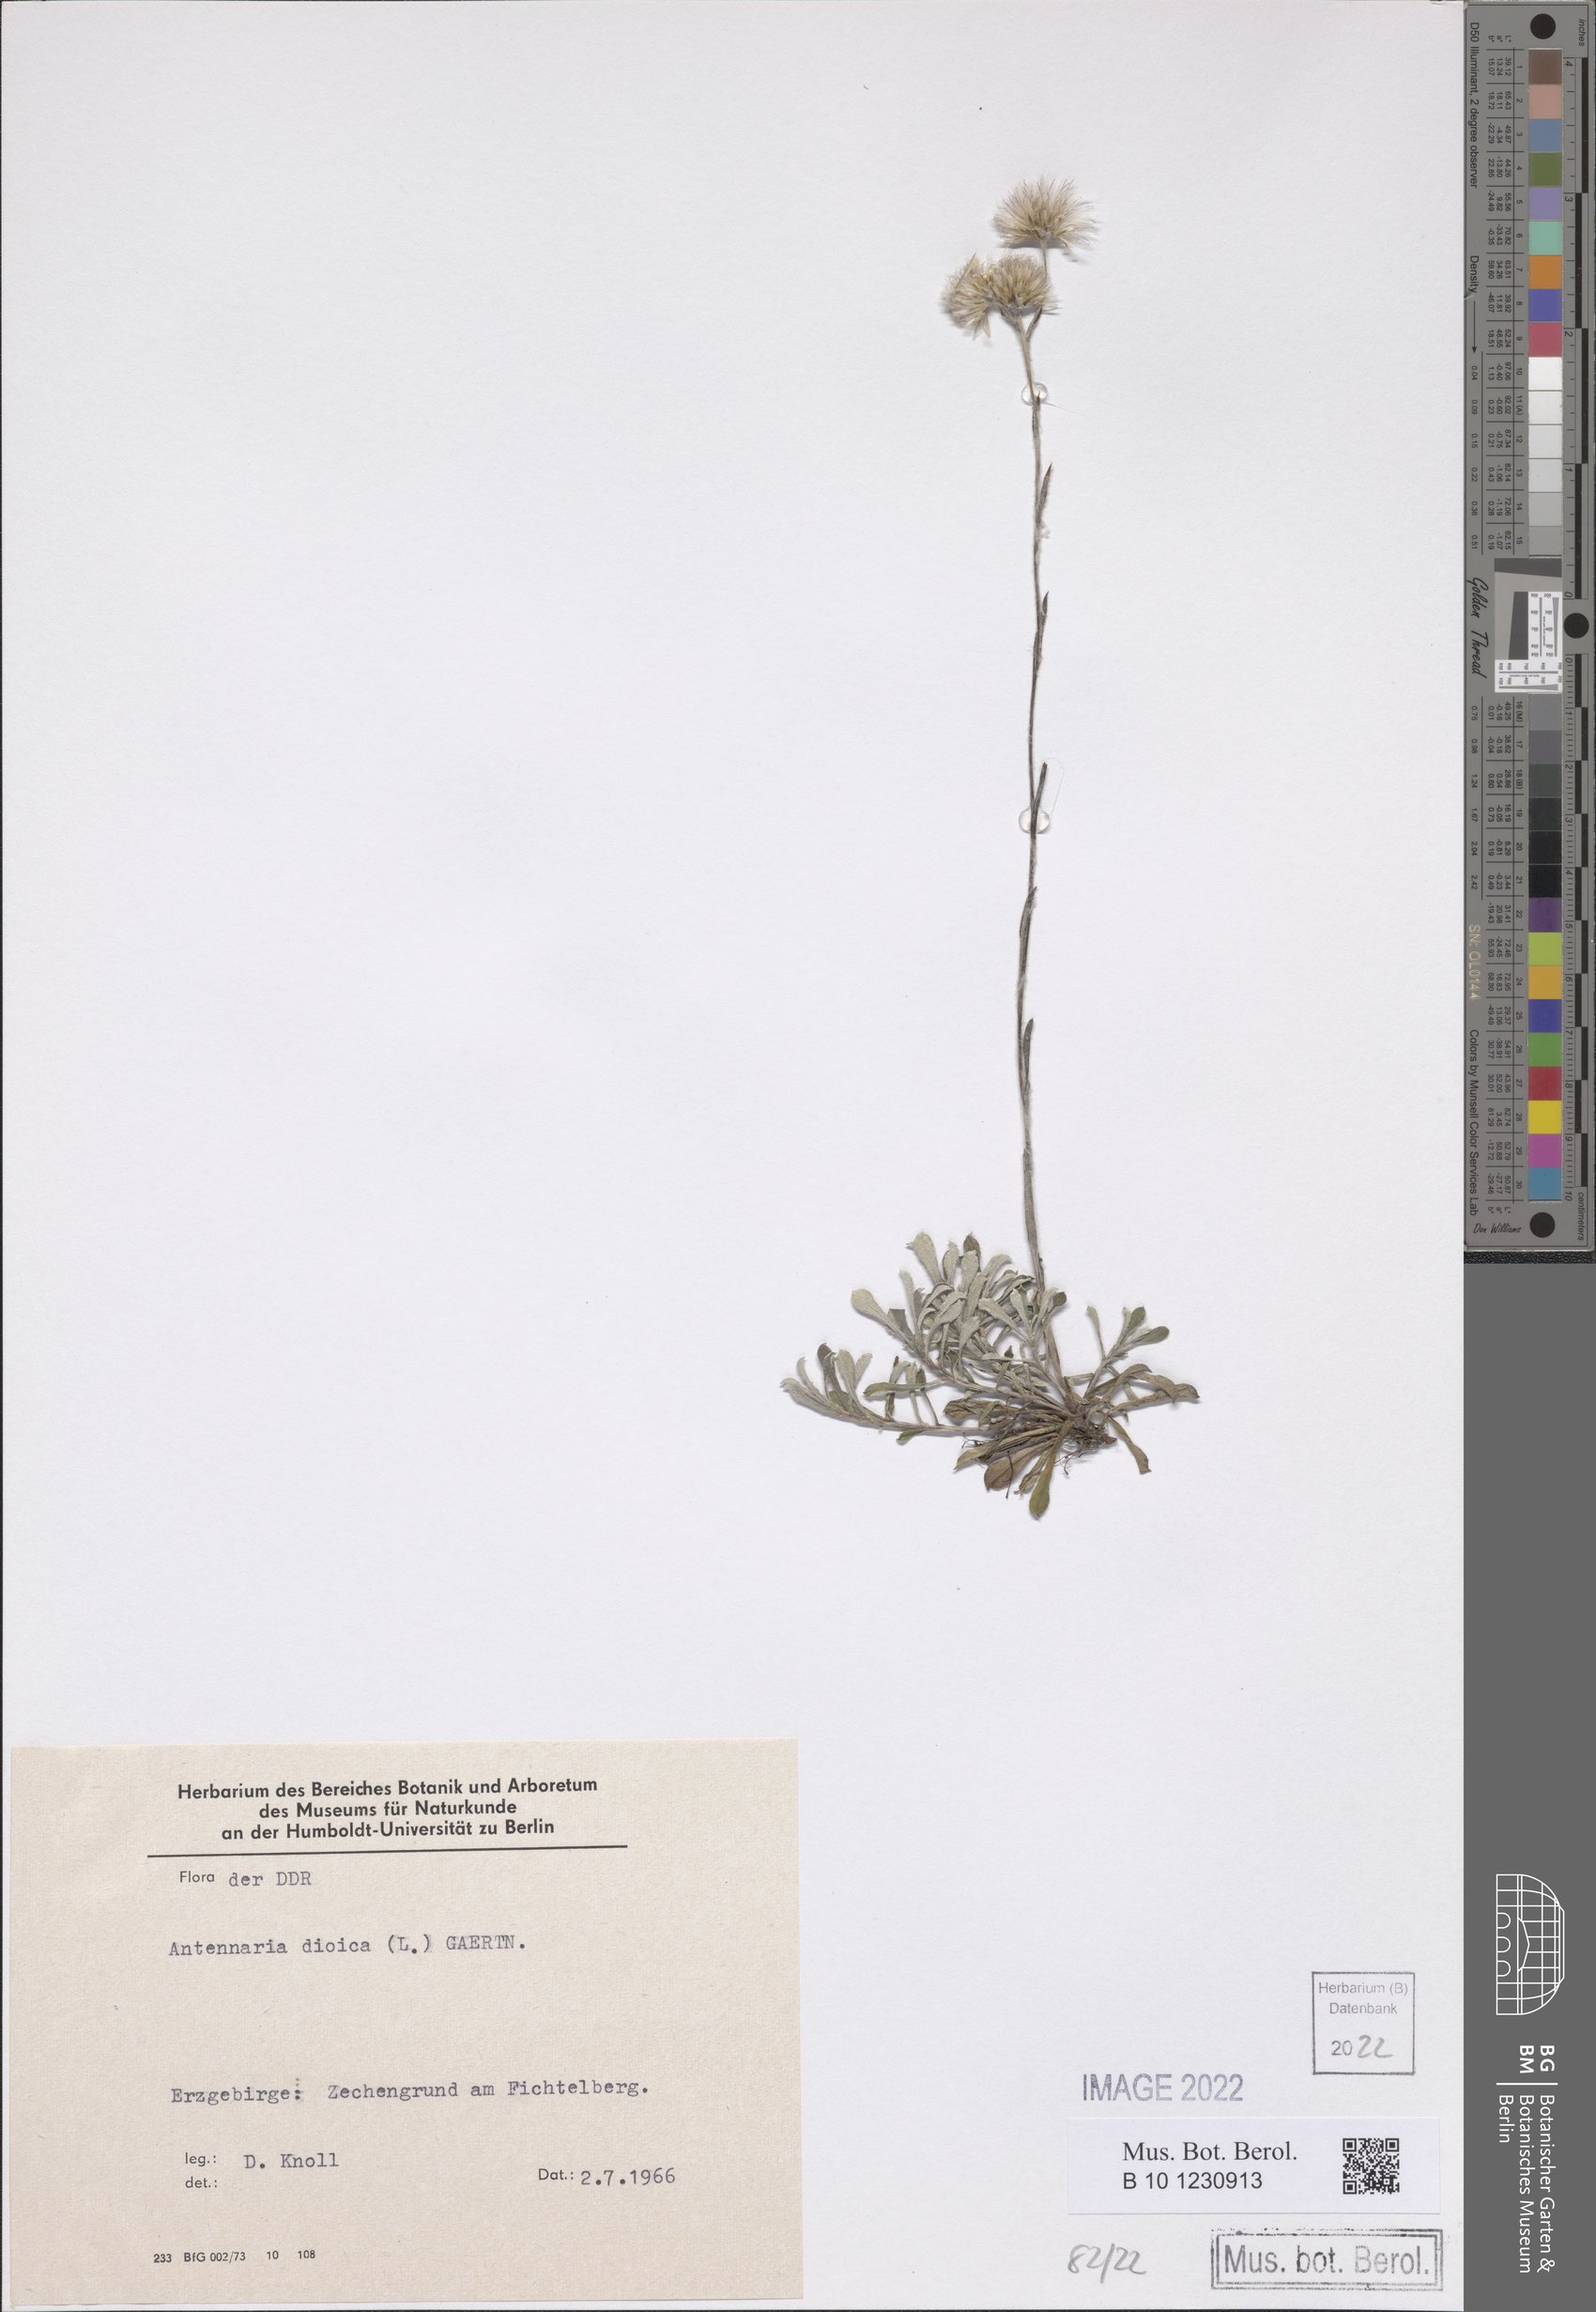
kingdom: Plantae
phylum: Tracheophyta
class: Magnoliopsida
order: Asterales
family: Asteraceae
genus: Antennaria
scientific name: Antennaria dioica
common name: Mountain everlasting
